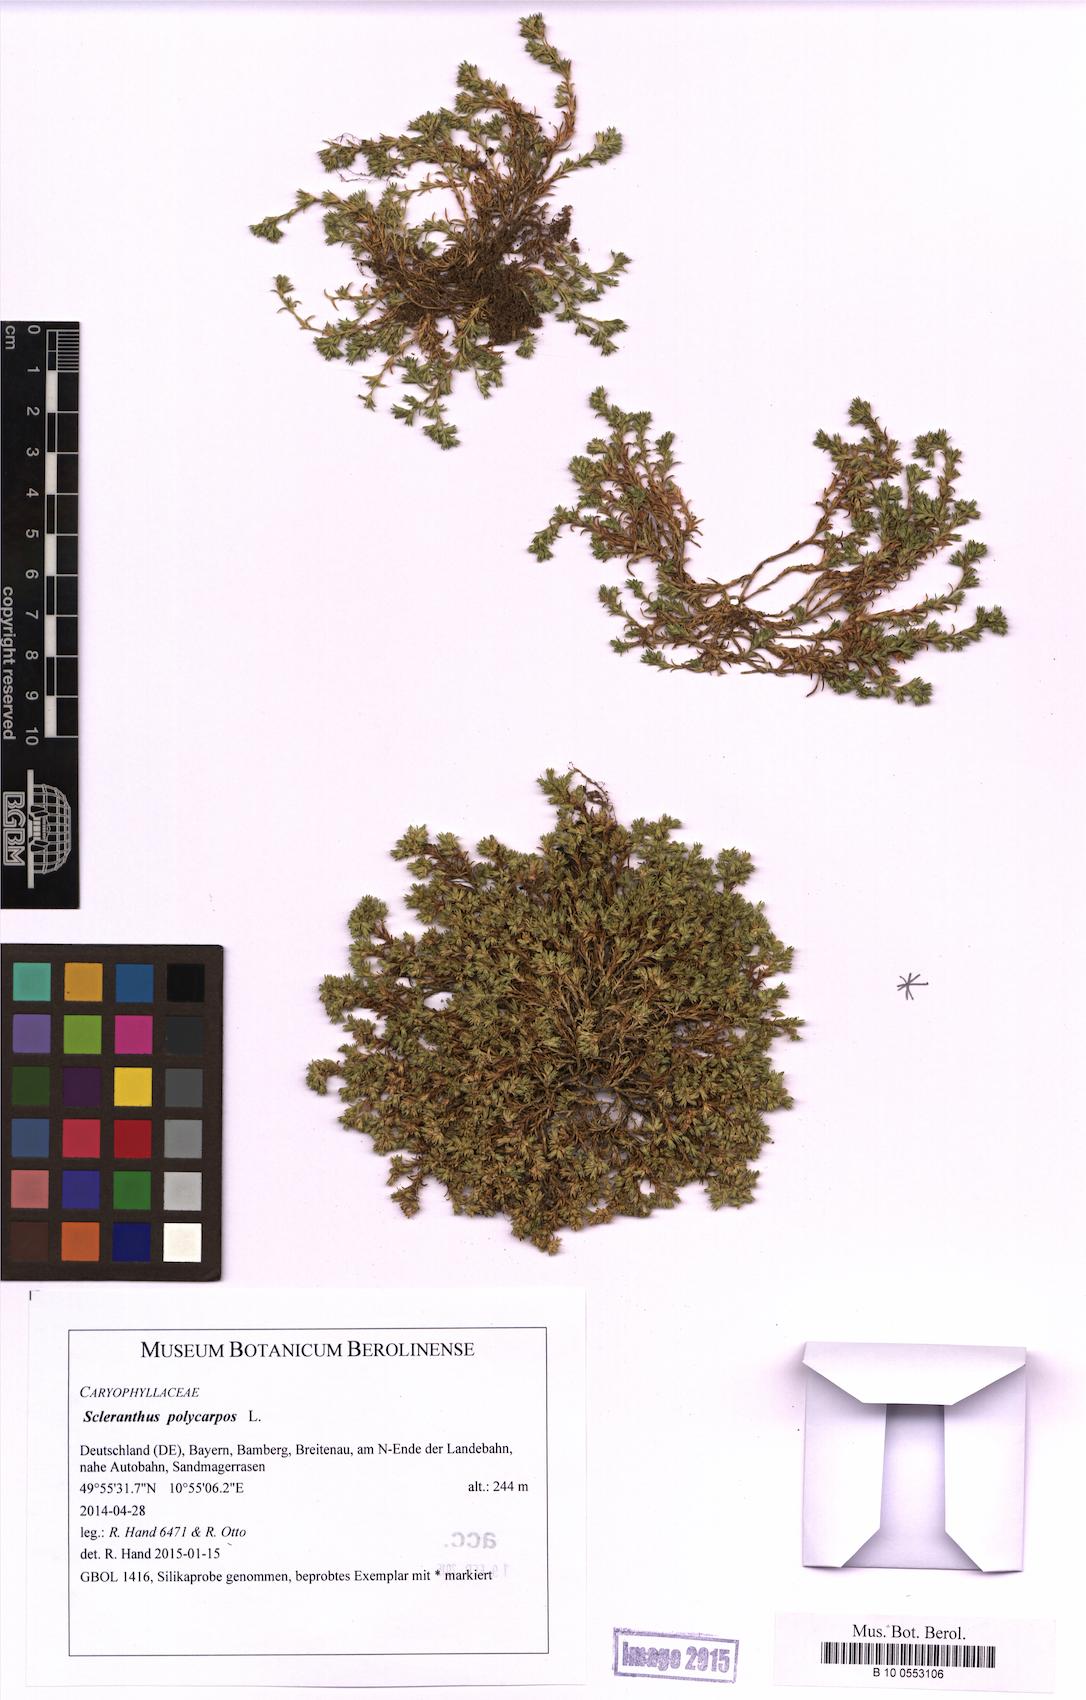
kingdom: Plantae
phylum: Tracheophyta
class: Magnoliopsida
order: Caryophyllales
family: Caryophyllaceae
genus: Scleranthus
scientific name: Scleranthus annuus
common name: Annual knawel
